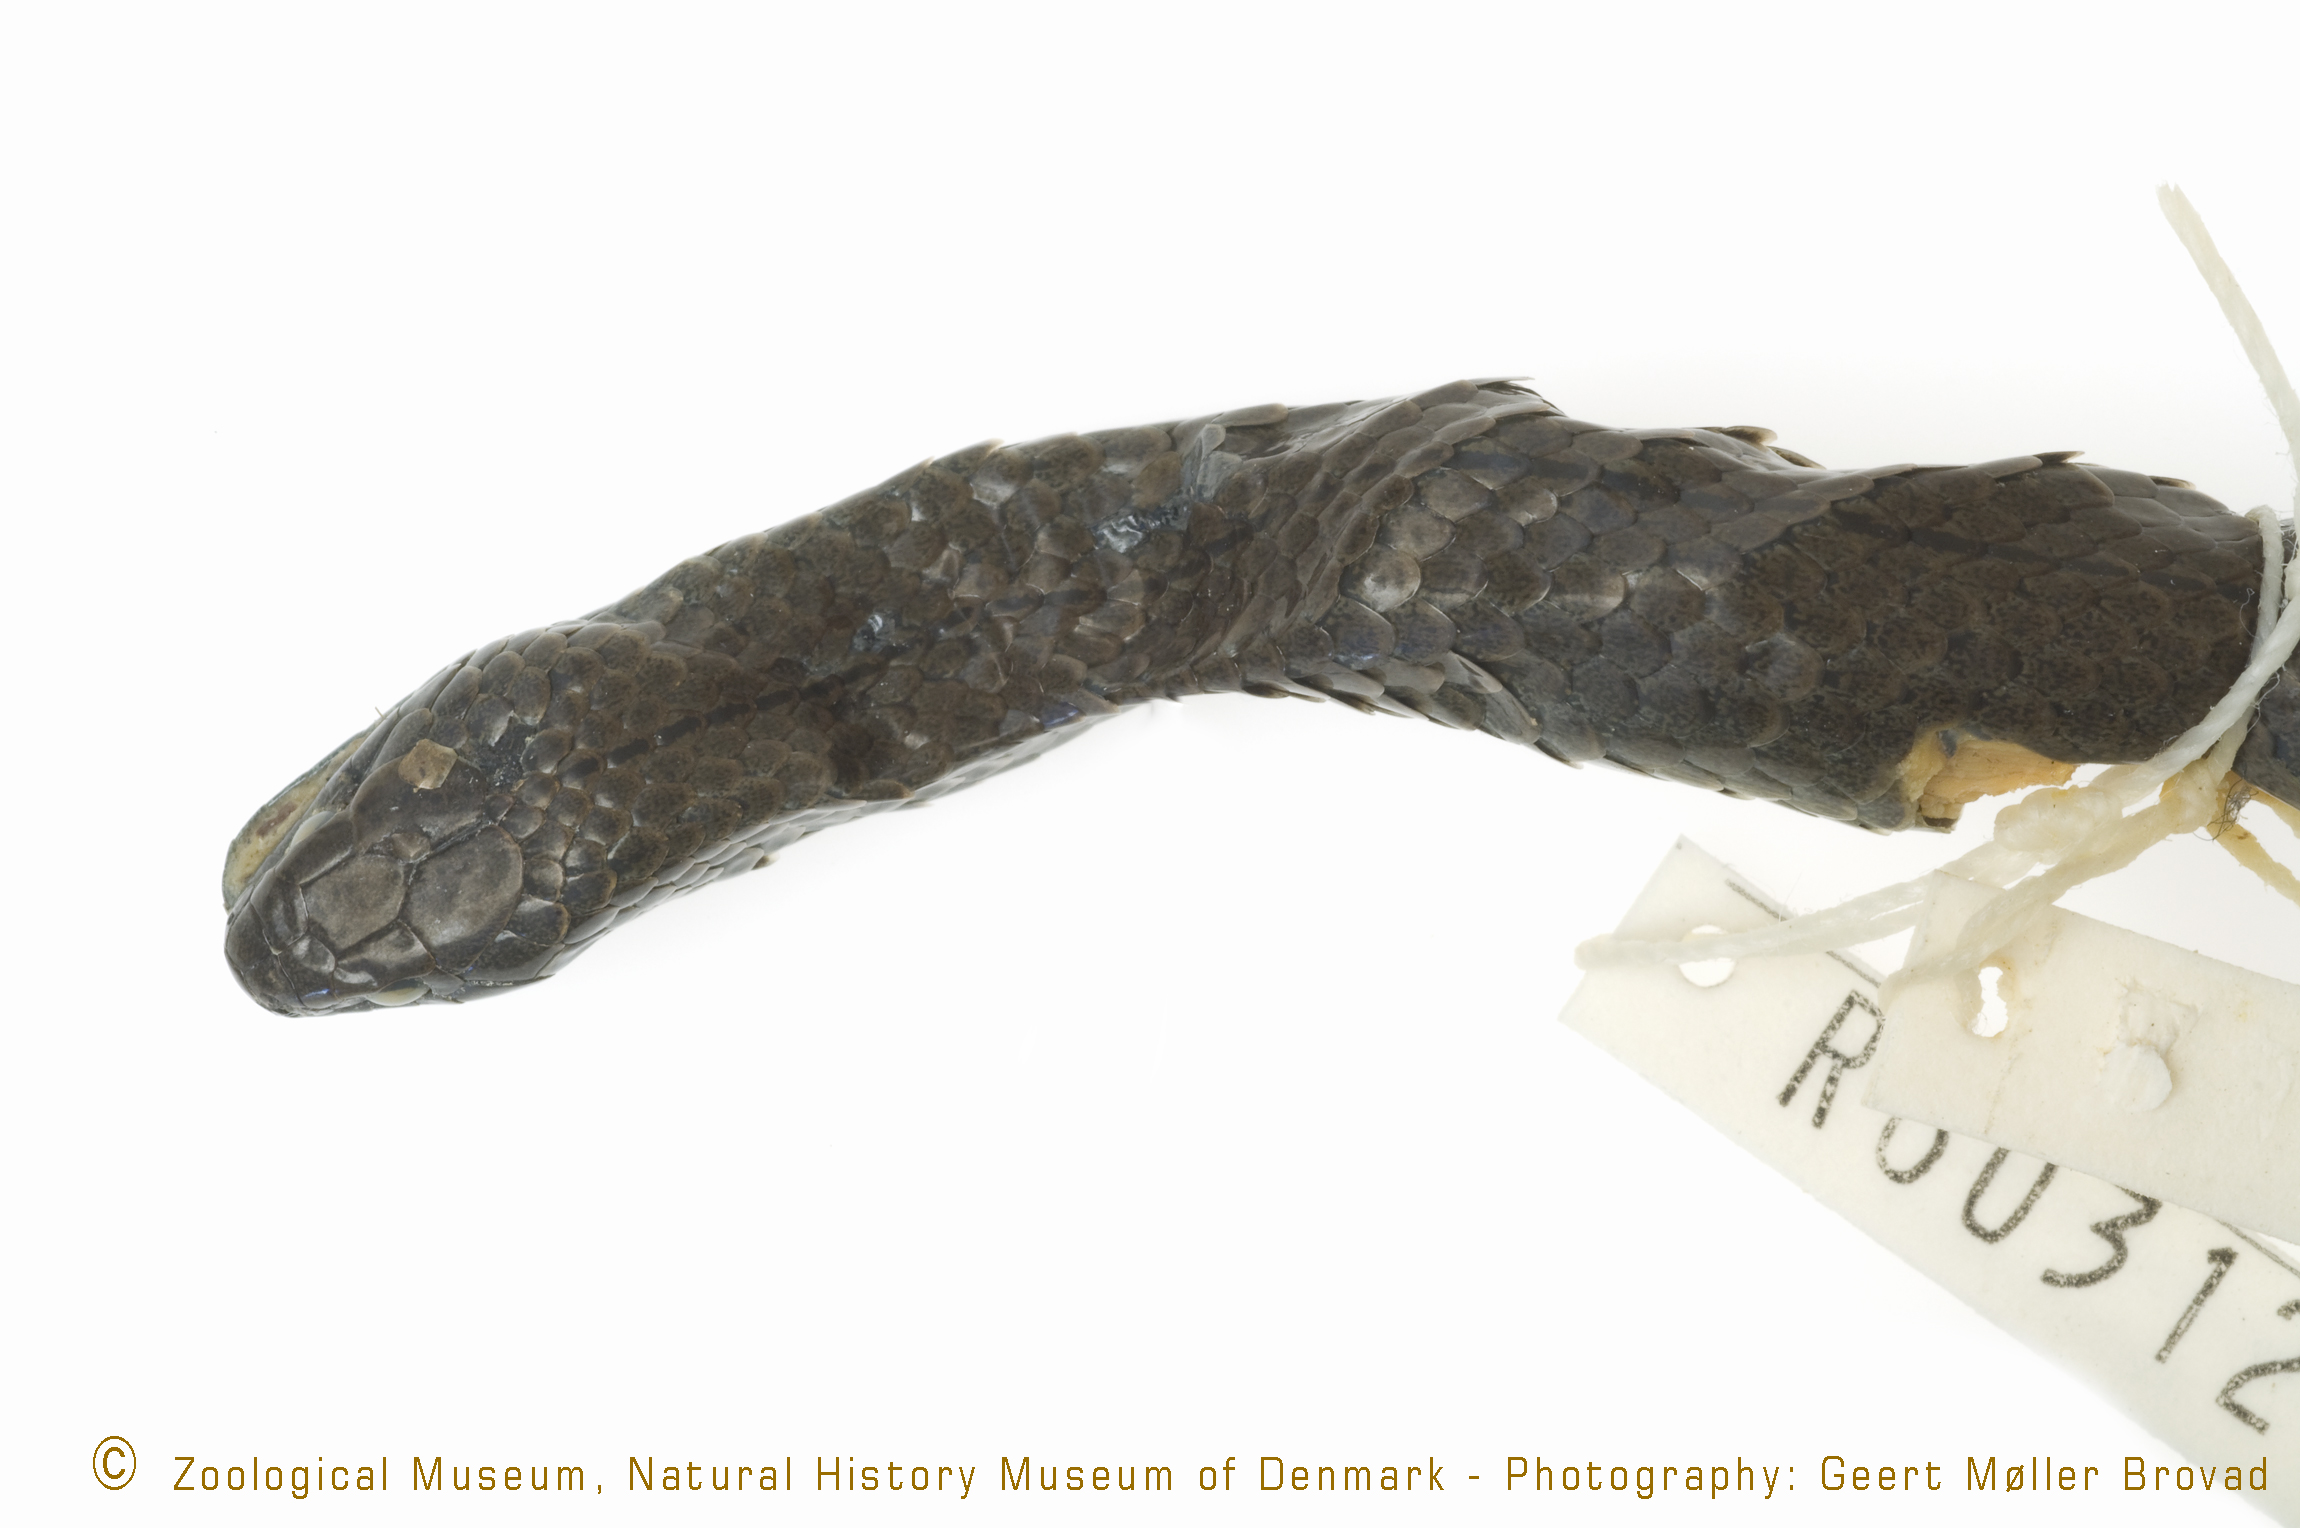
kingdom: Animalia
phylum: Chordata
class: Squamata
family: Pseudoxyrhophiidae
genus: Duberria
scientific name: Duberria lutrix
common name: Common slug eater
